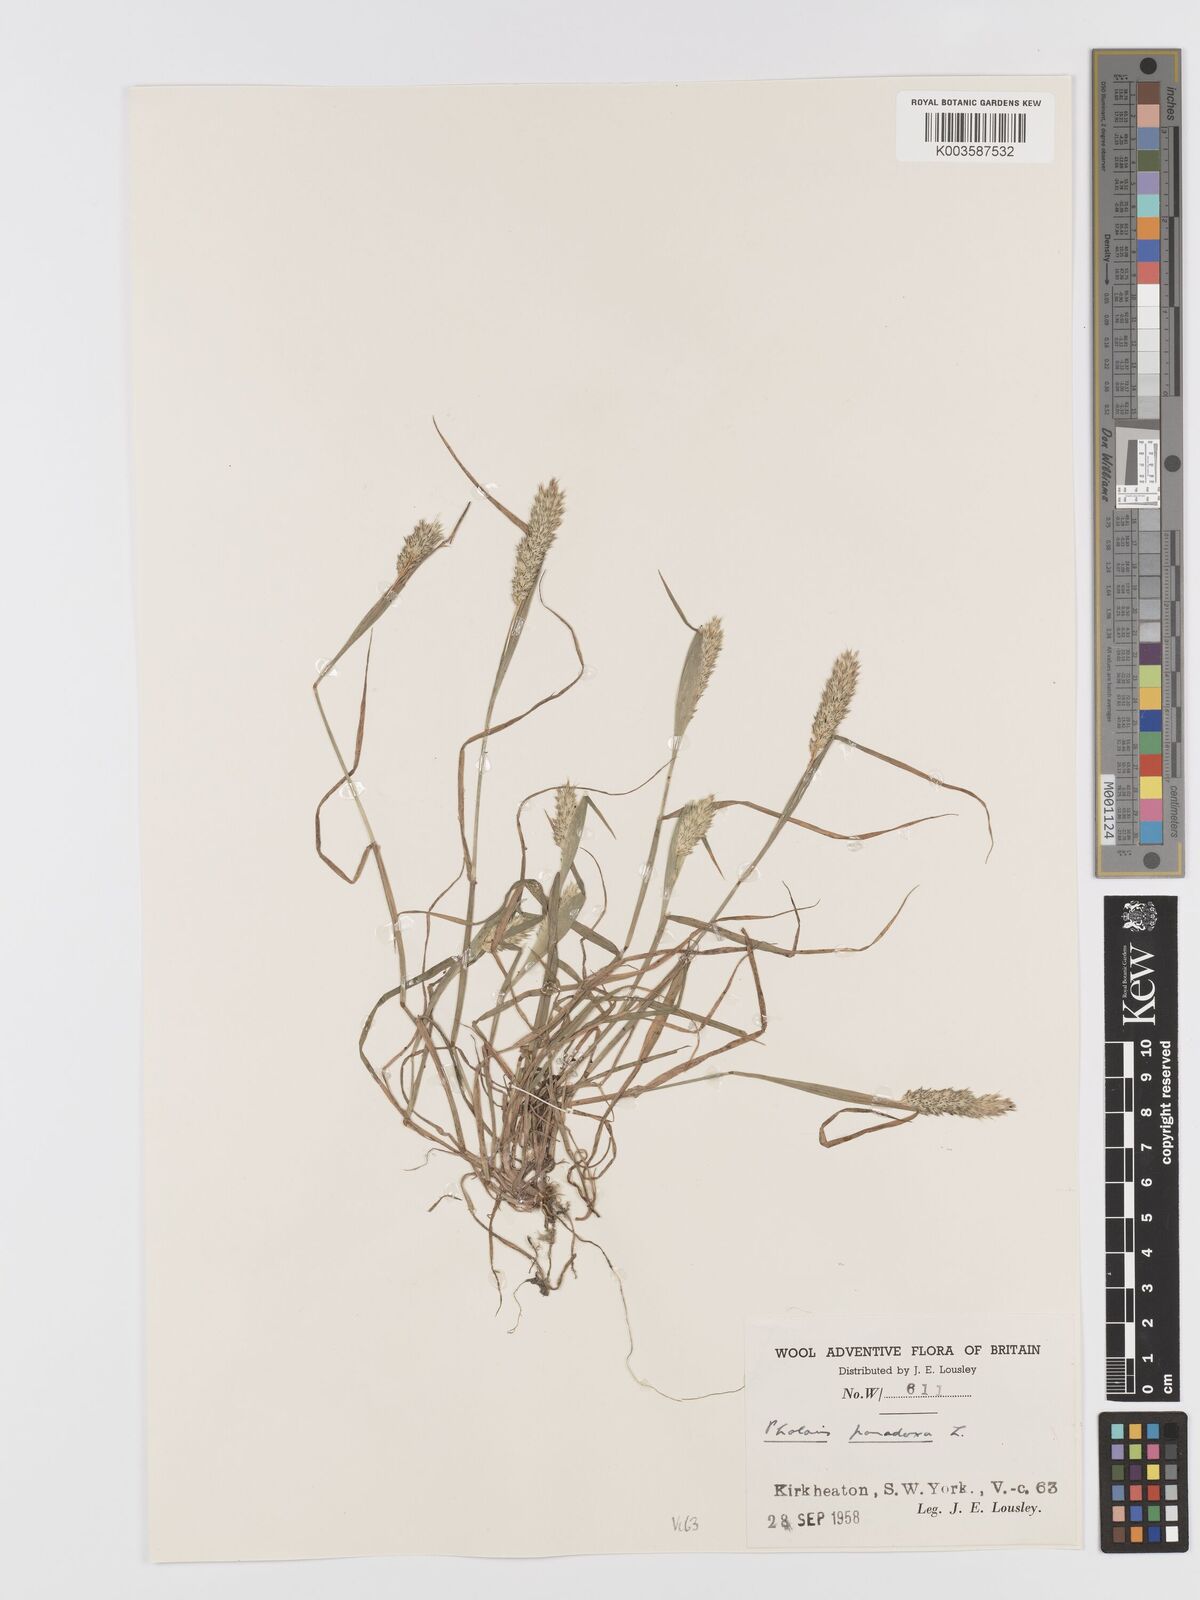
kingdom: Plantae
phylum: Tracheophyta
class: Liliopsida
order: Poales
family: Poaceae
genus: Phalaris
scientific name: Phalaris paradoxa
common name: Awned canary-grass
